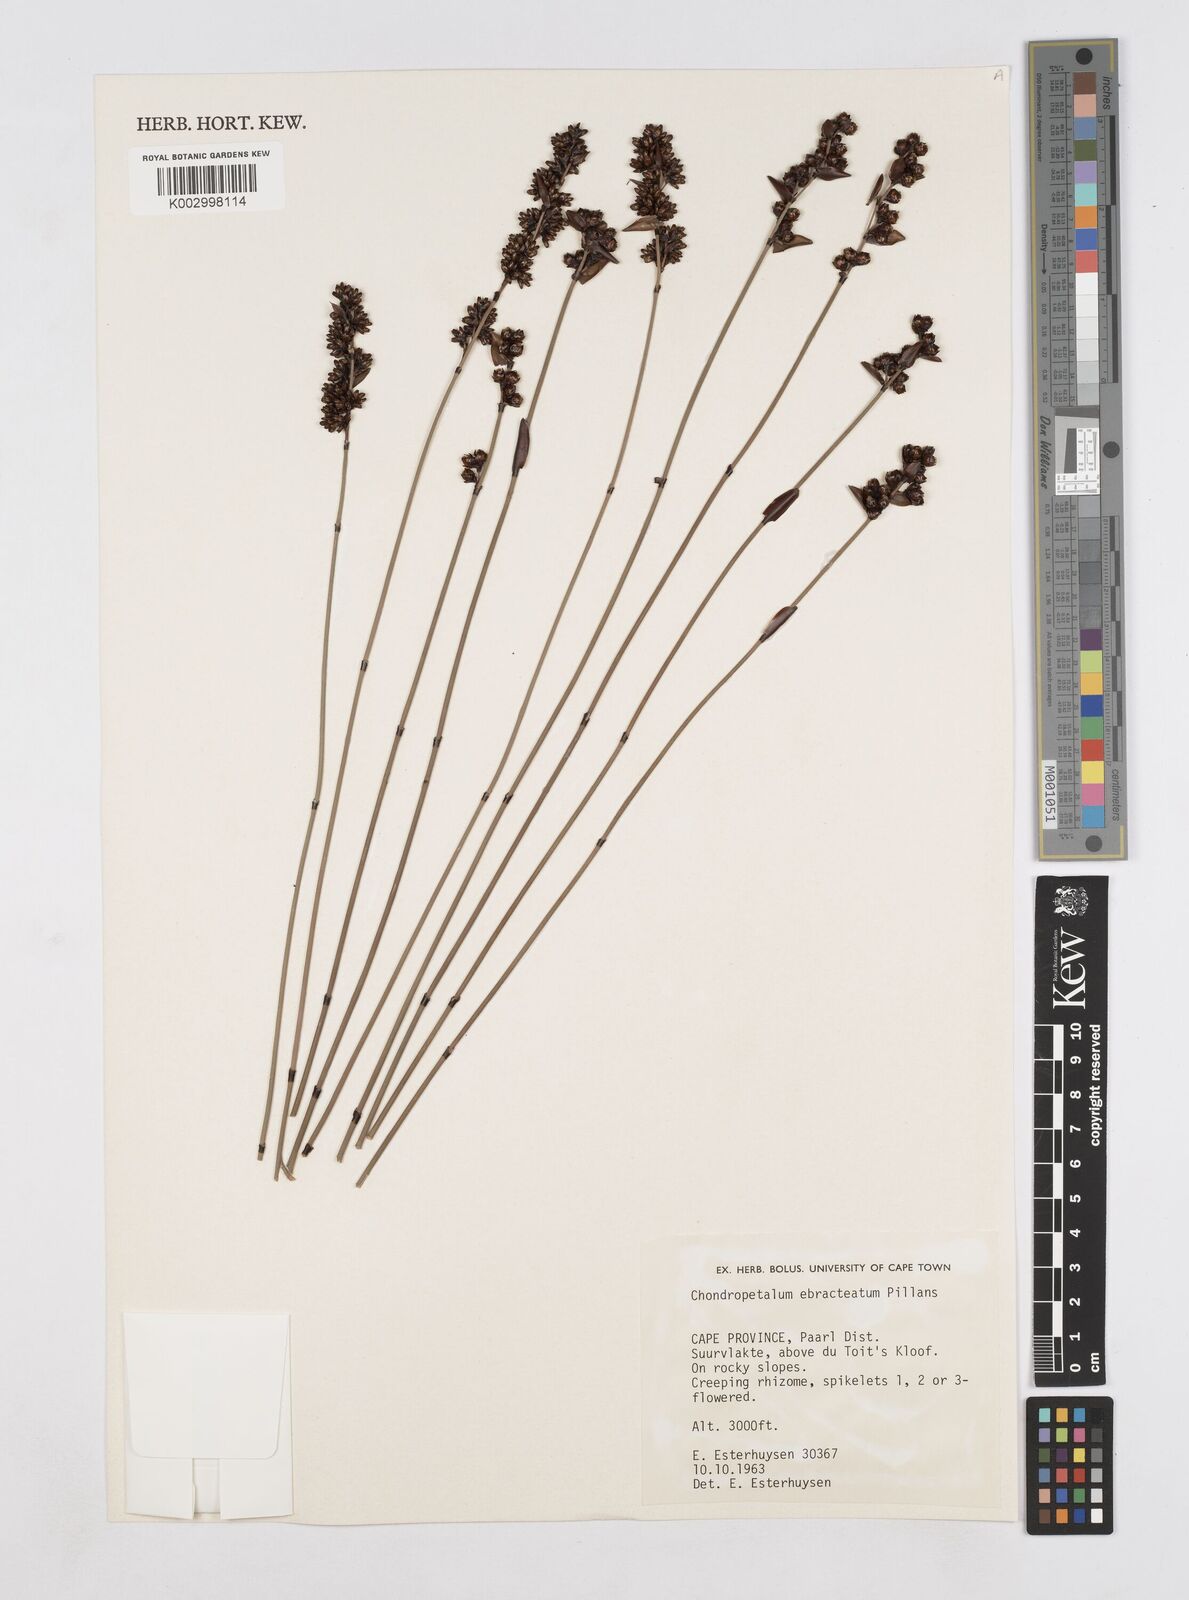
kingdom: Plantae
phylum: Tracheophyta
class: Liliopsida
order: Poales
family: Restionaceae
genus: Elegia
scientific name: Elegia ebracteata
